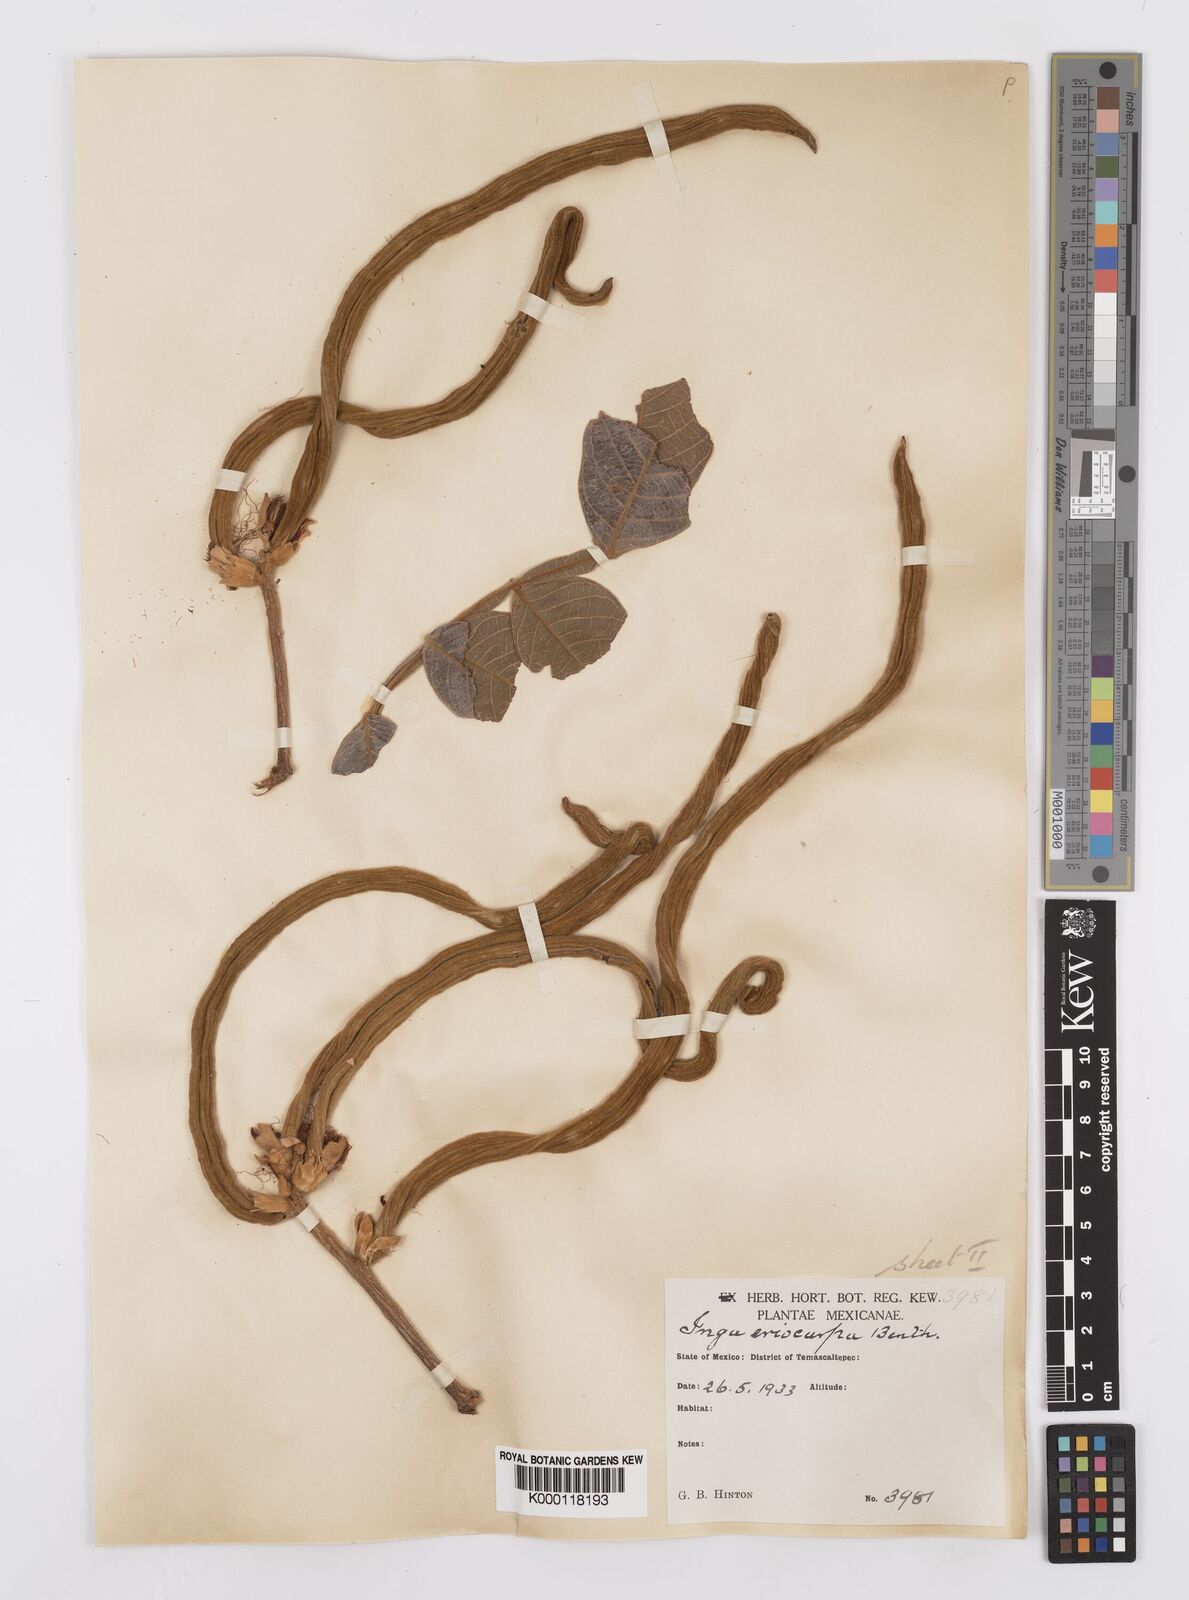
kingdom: Plantae
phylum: Tracheophyta
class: Magnoliopsida
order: Fabales
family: Fabaceae
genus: Inga
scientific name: Inga vera
